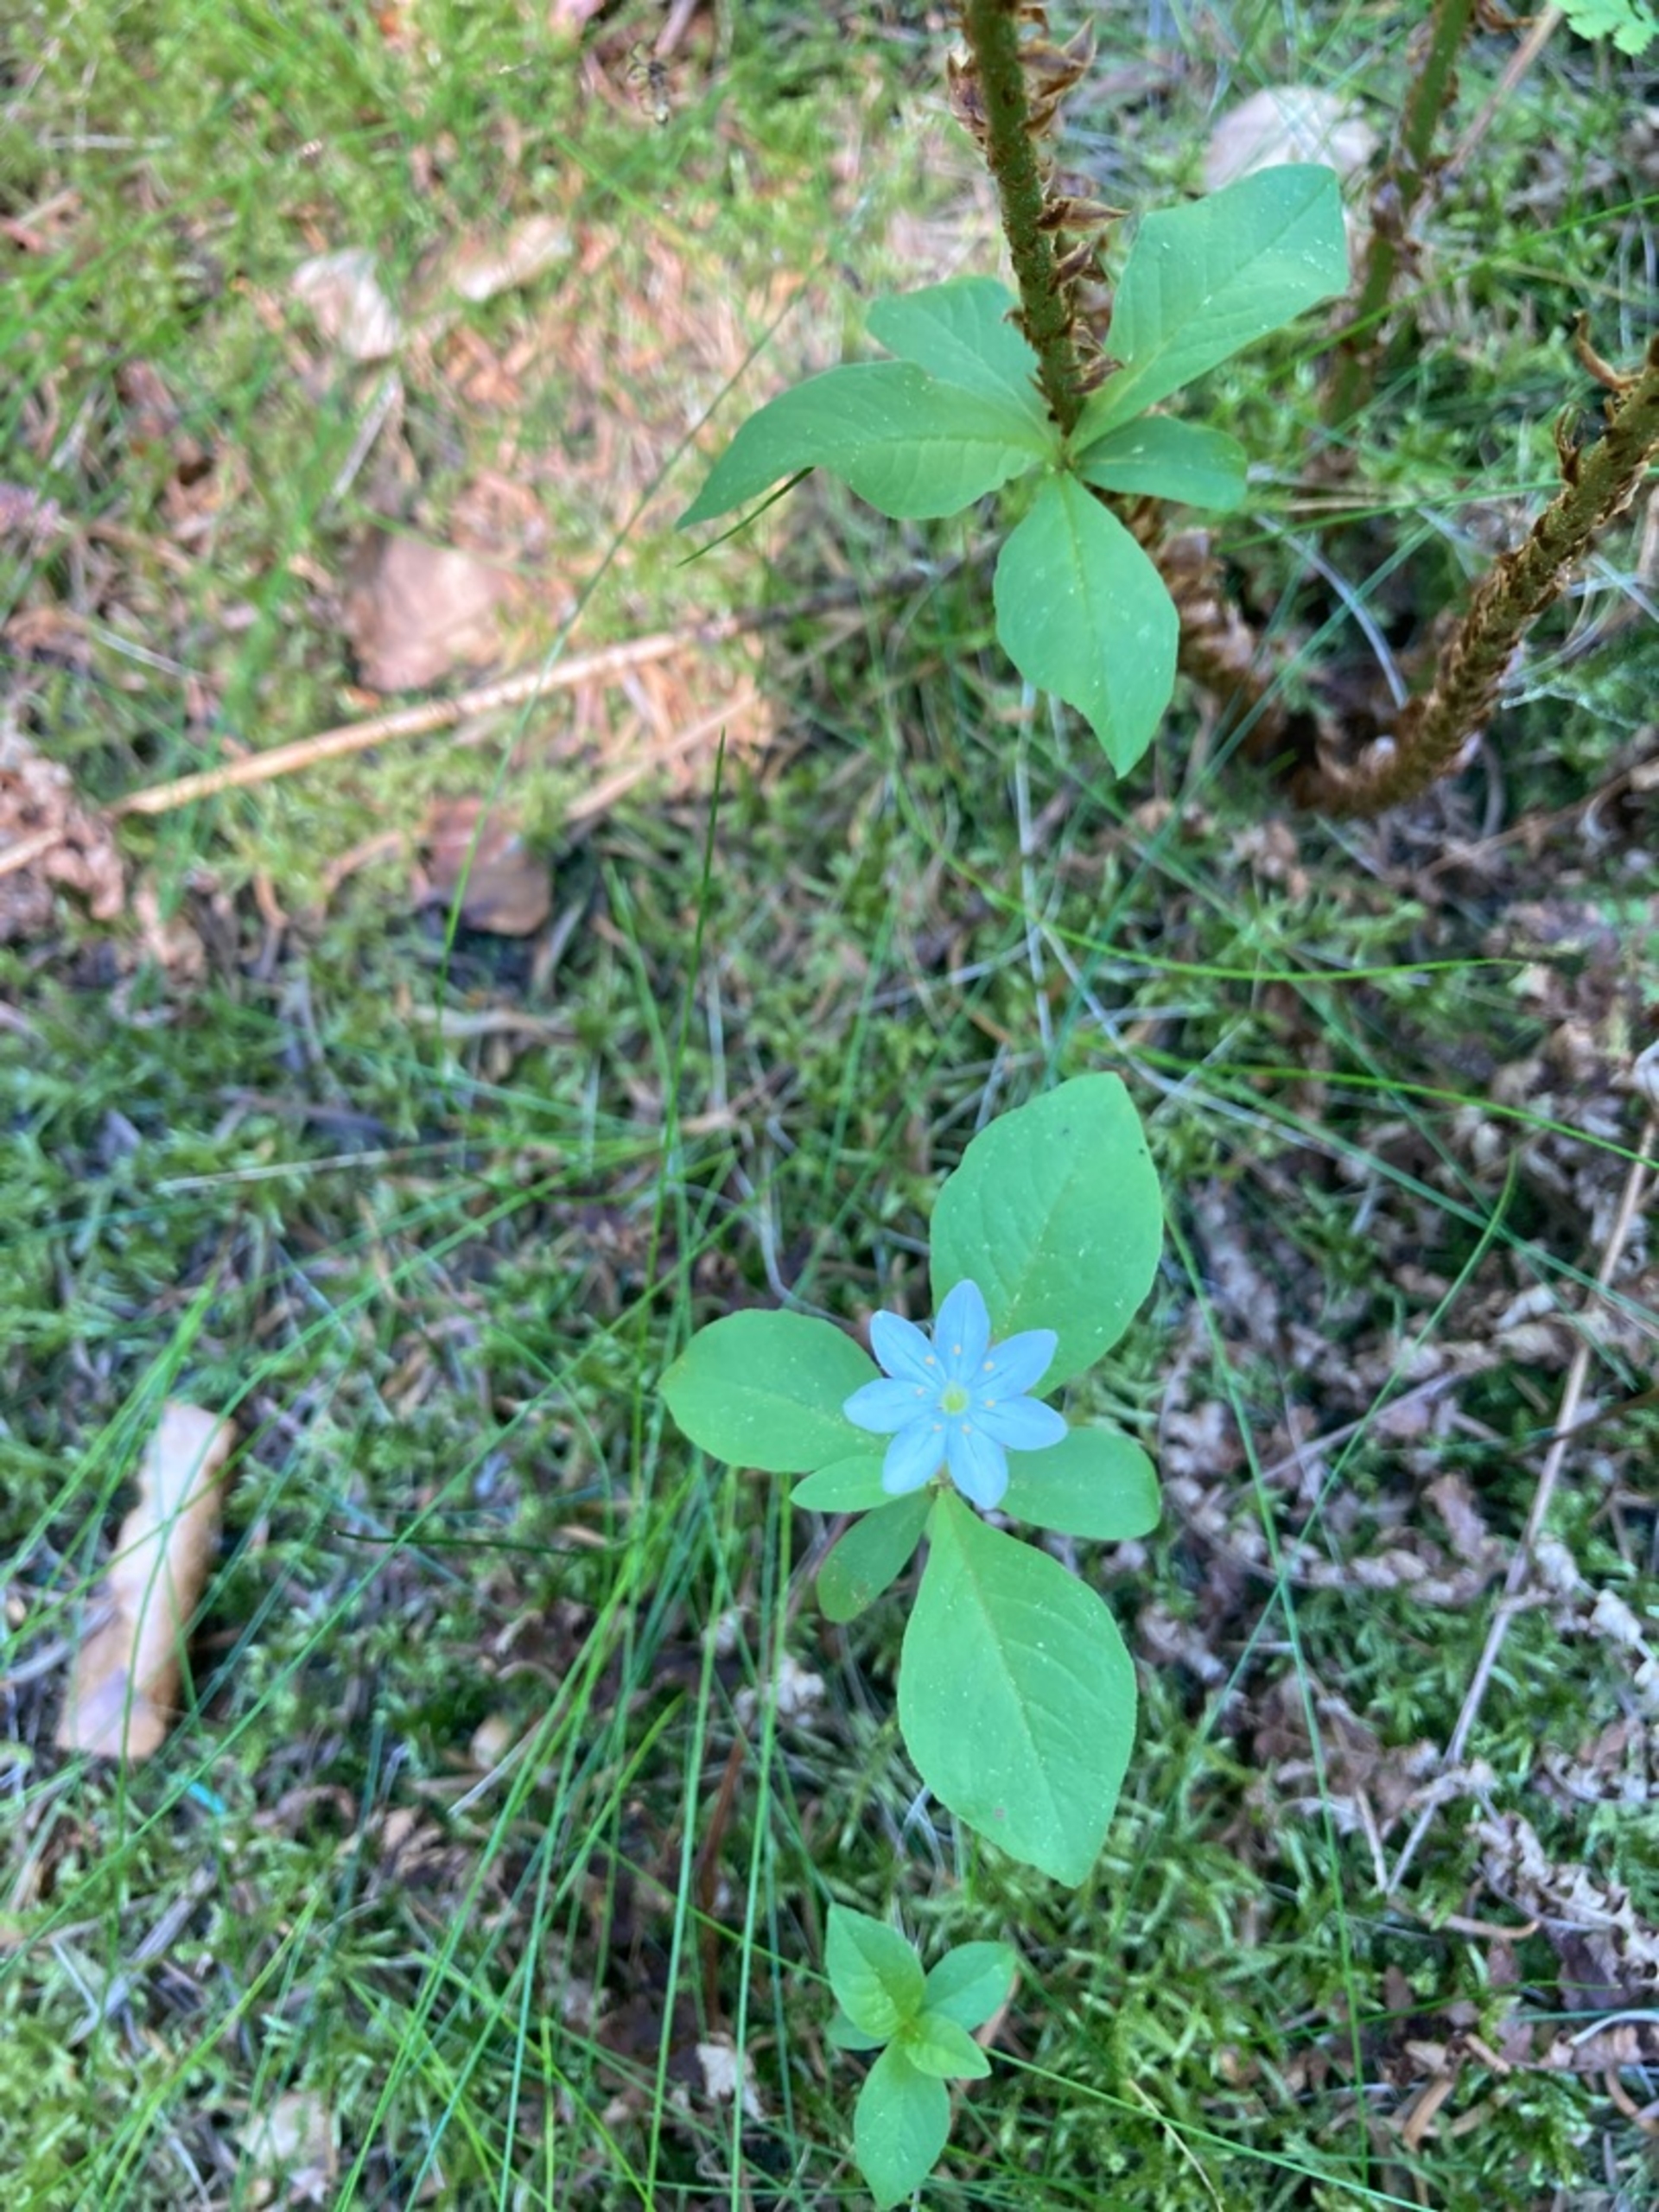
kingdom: Plantae
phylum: Tracheophyta
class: Magnoliopsida
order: Ericales
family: Primulaceae
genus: Lysimachia
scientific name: Lysimachia europaea
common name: Skovstjerne
